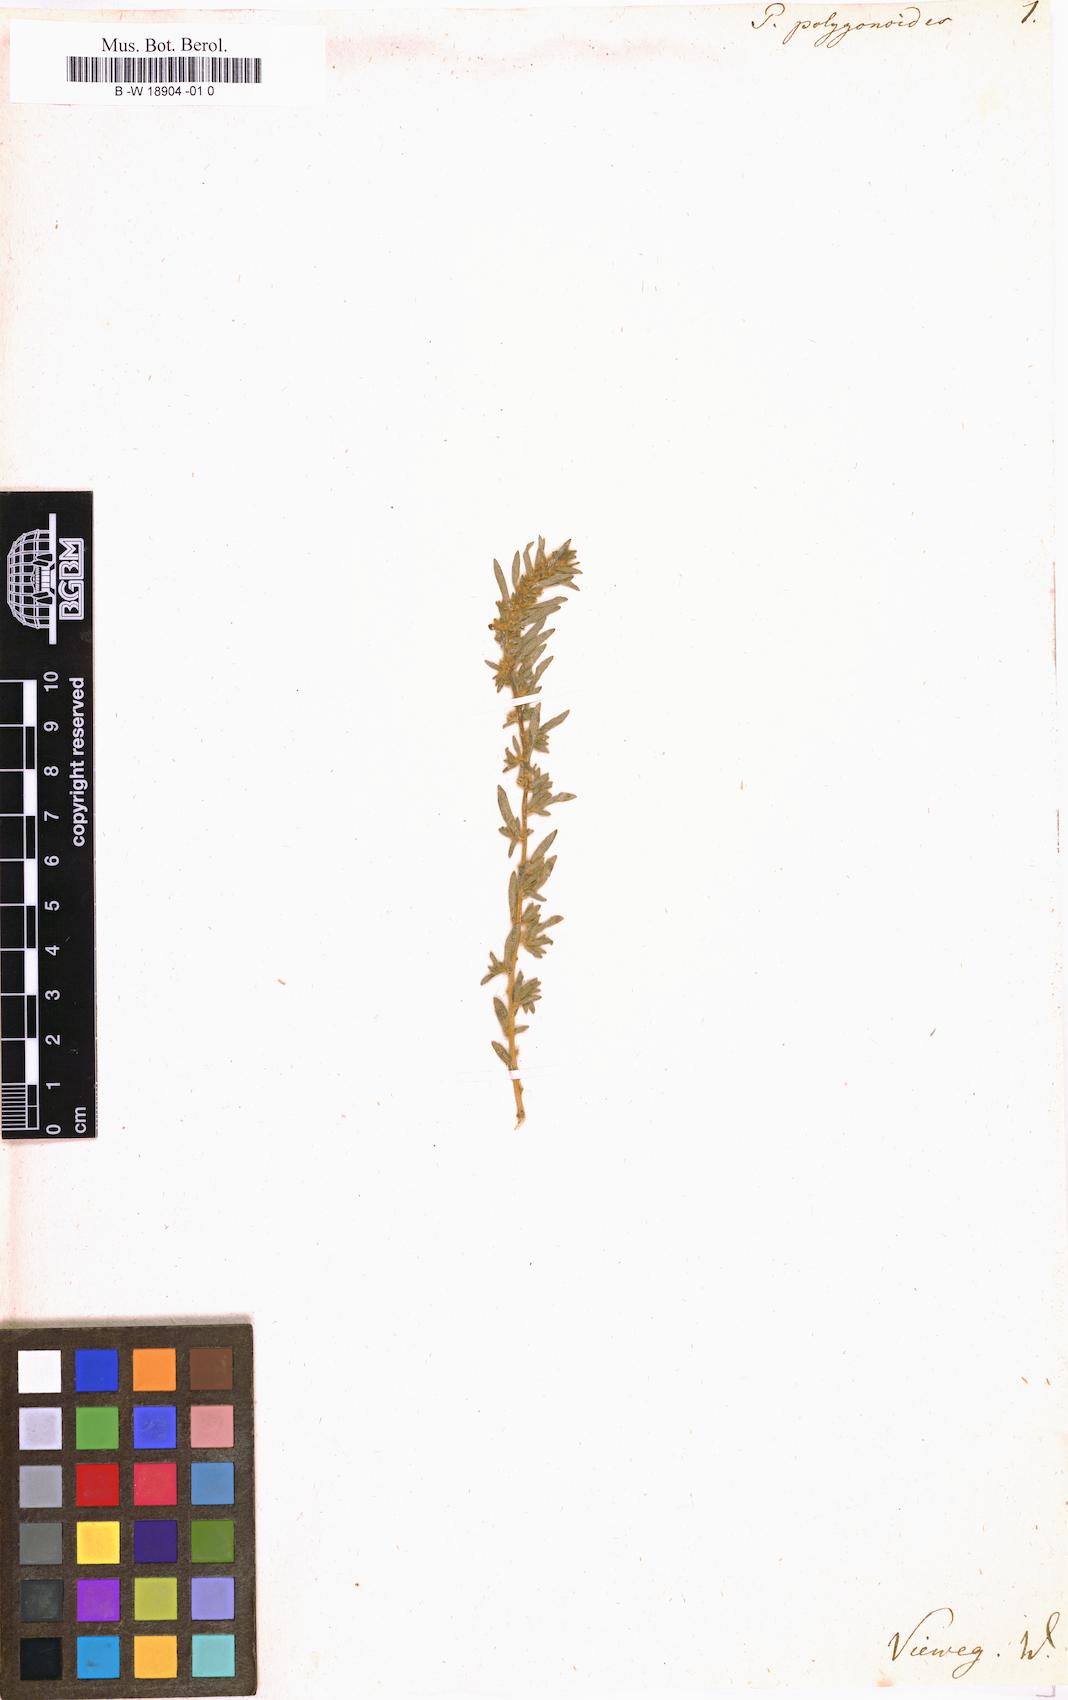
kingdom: Plantae
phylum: Tracheophyta
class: Magnoliopsida
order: Rosales
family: Urticaceae
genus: Parietaria
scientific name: Parietaria lusitanica
